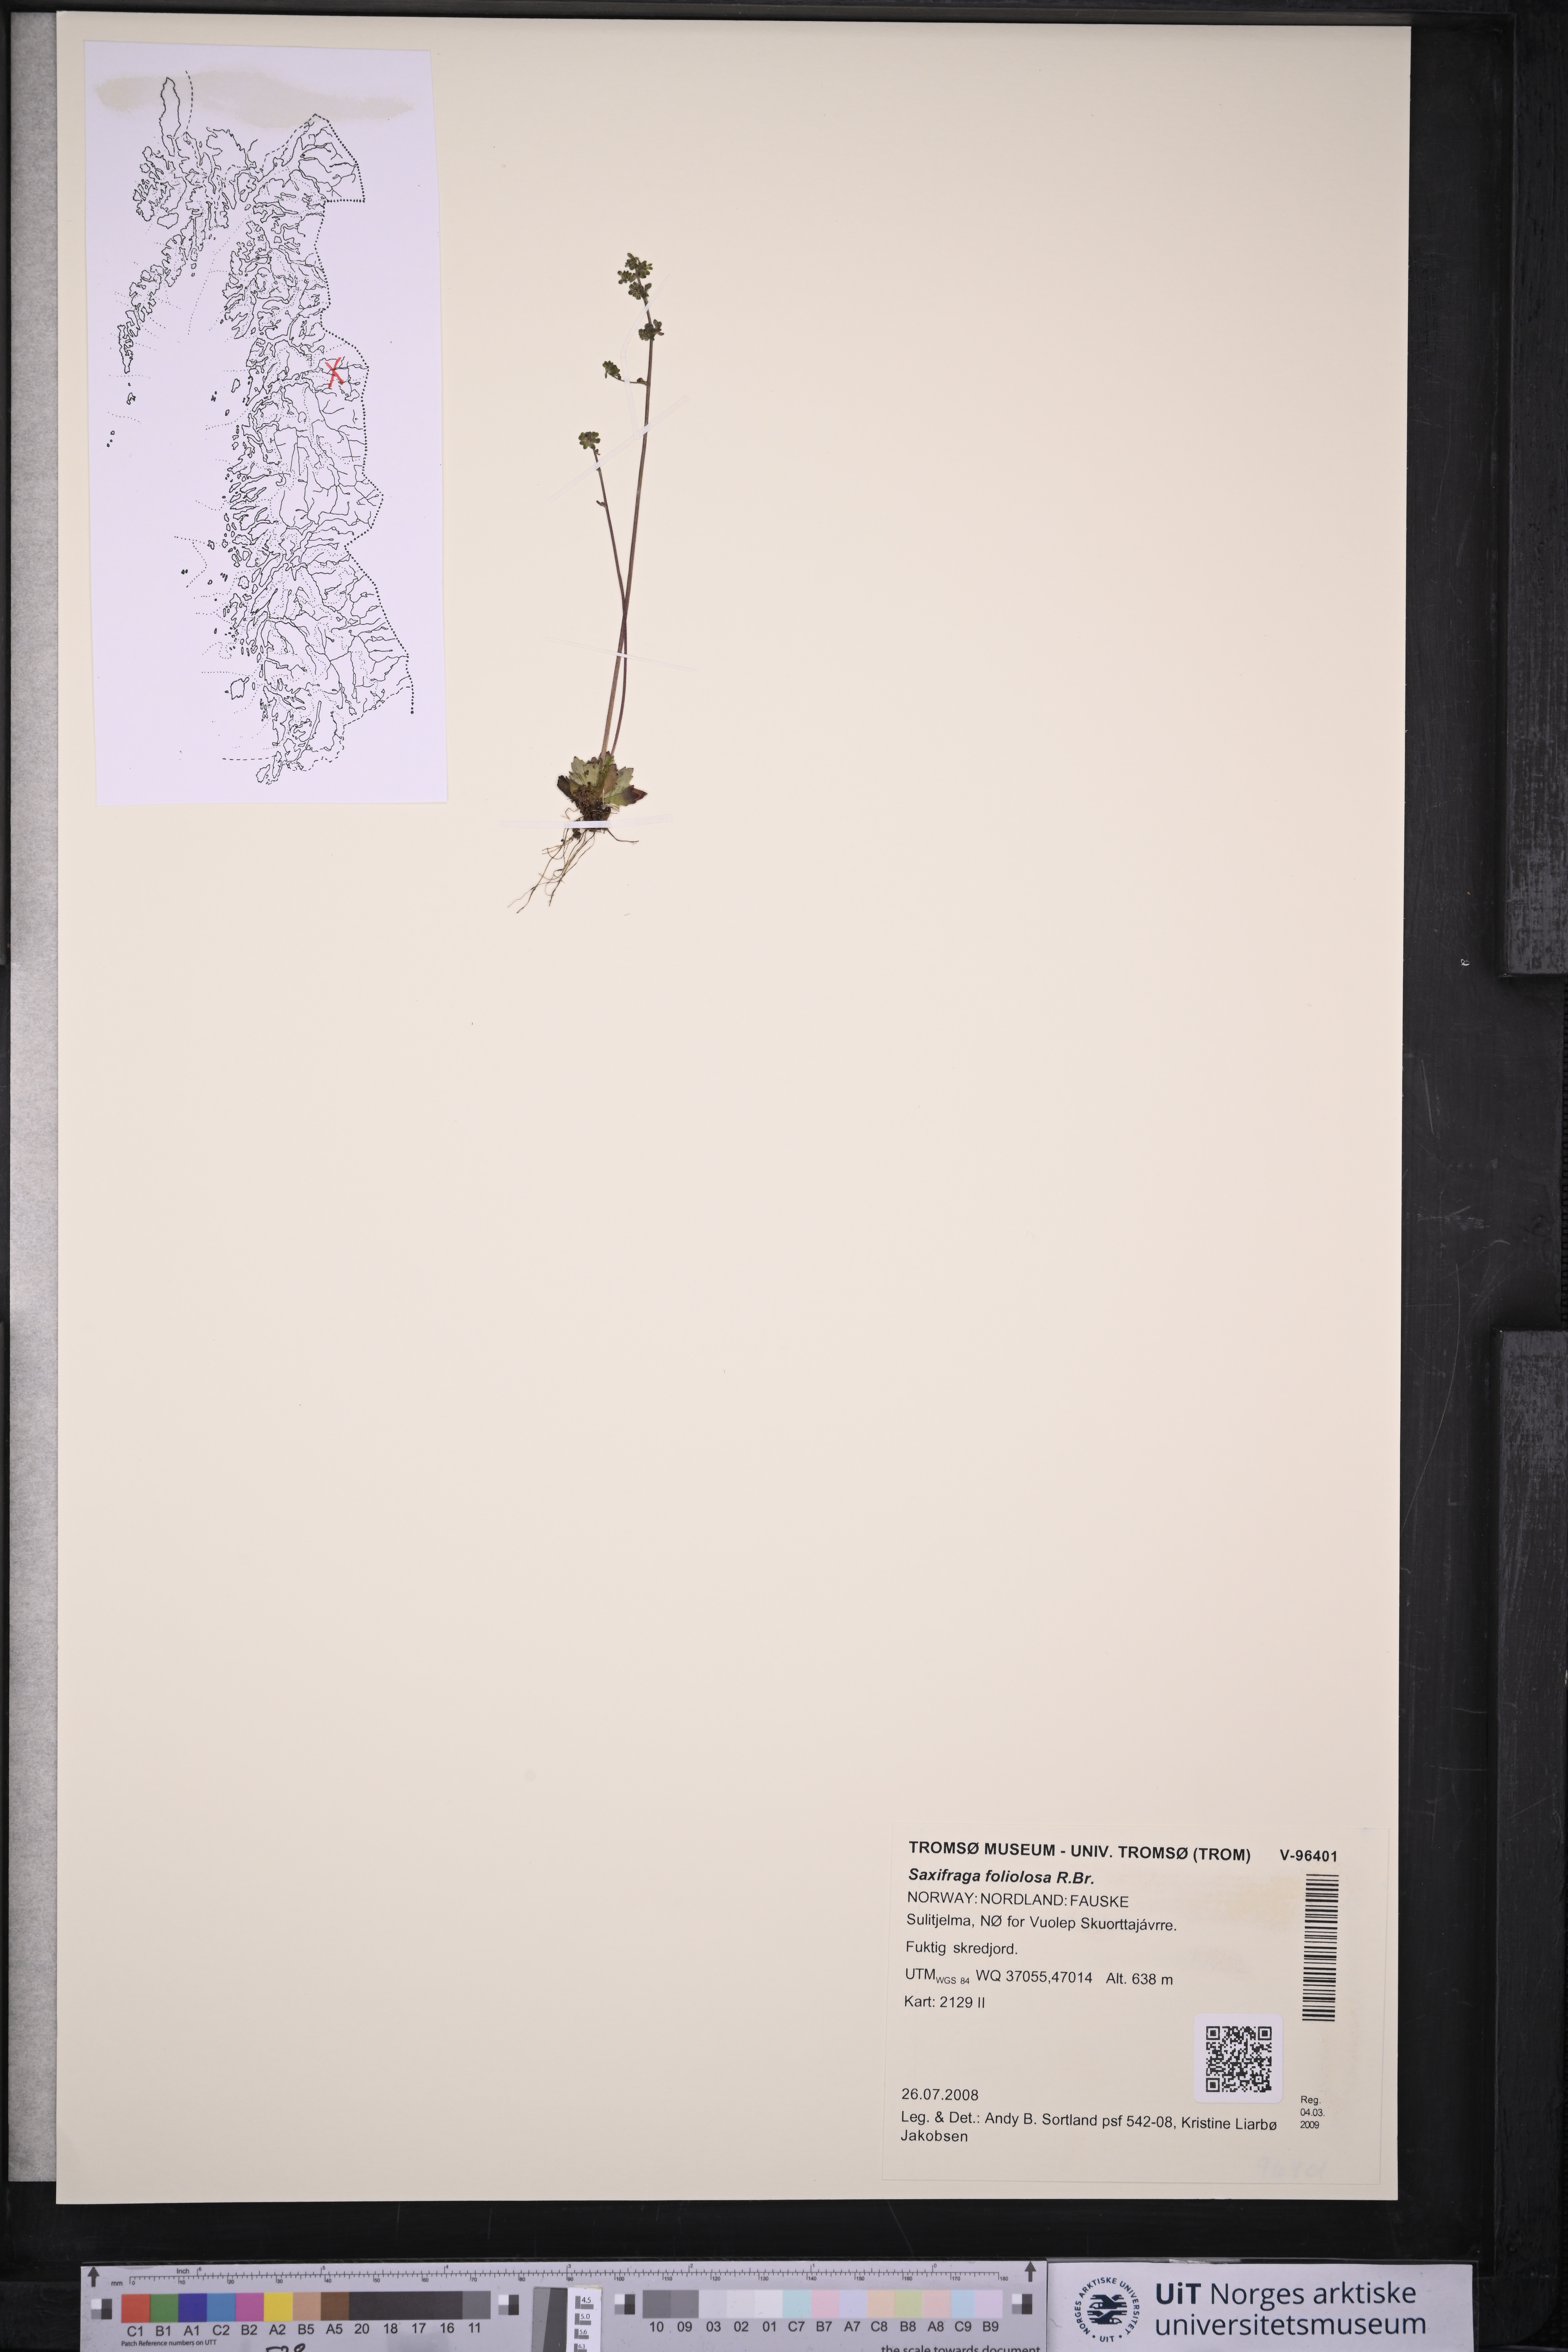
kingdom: Plantae
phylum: Tracheophyta
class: Magnoliopsida
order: Saxifragales
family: Saxifragaceae
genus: Micranthes
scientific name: Micranthes foliolosa
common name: Leafystem saxifrage
